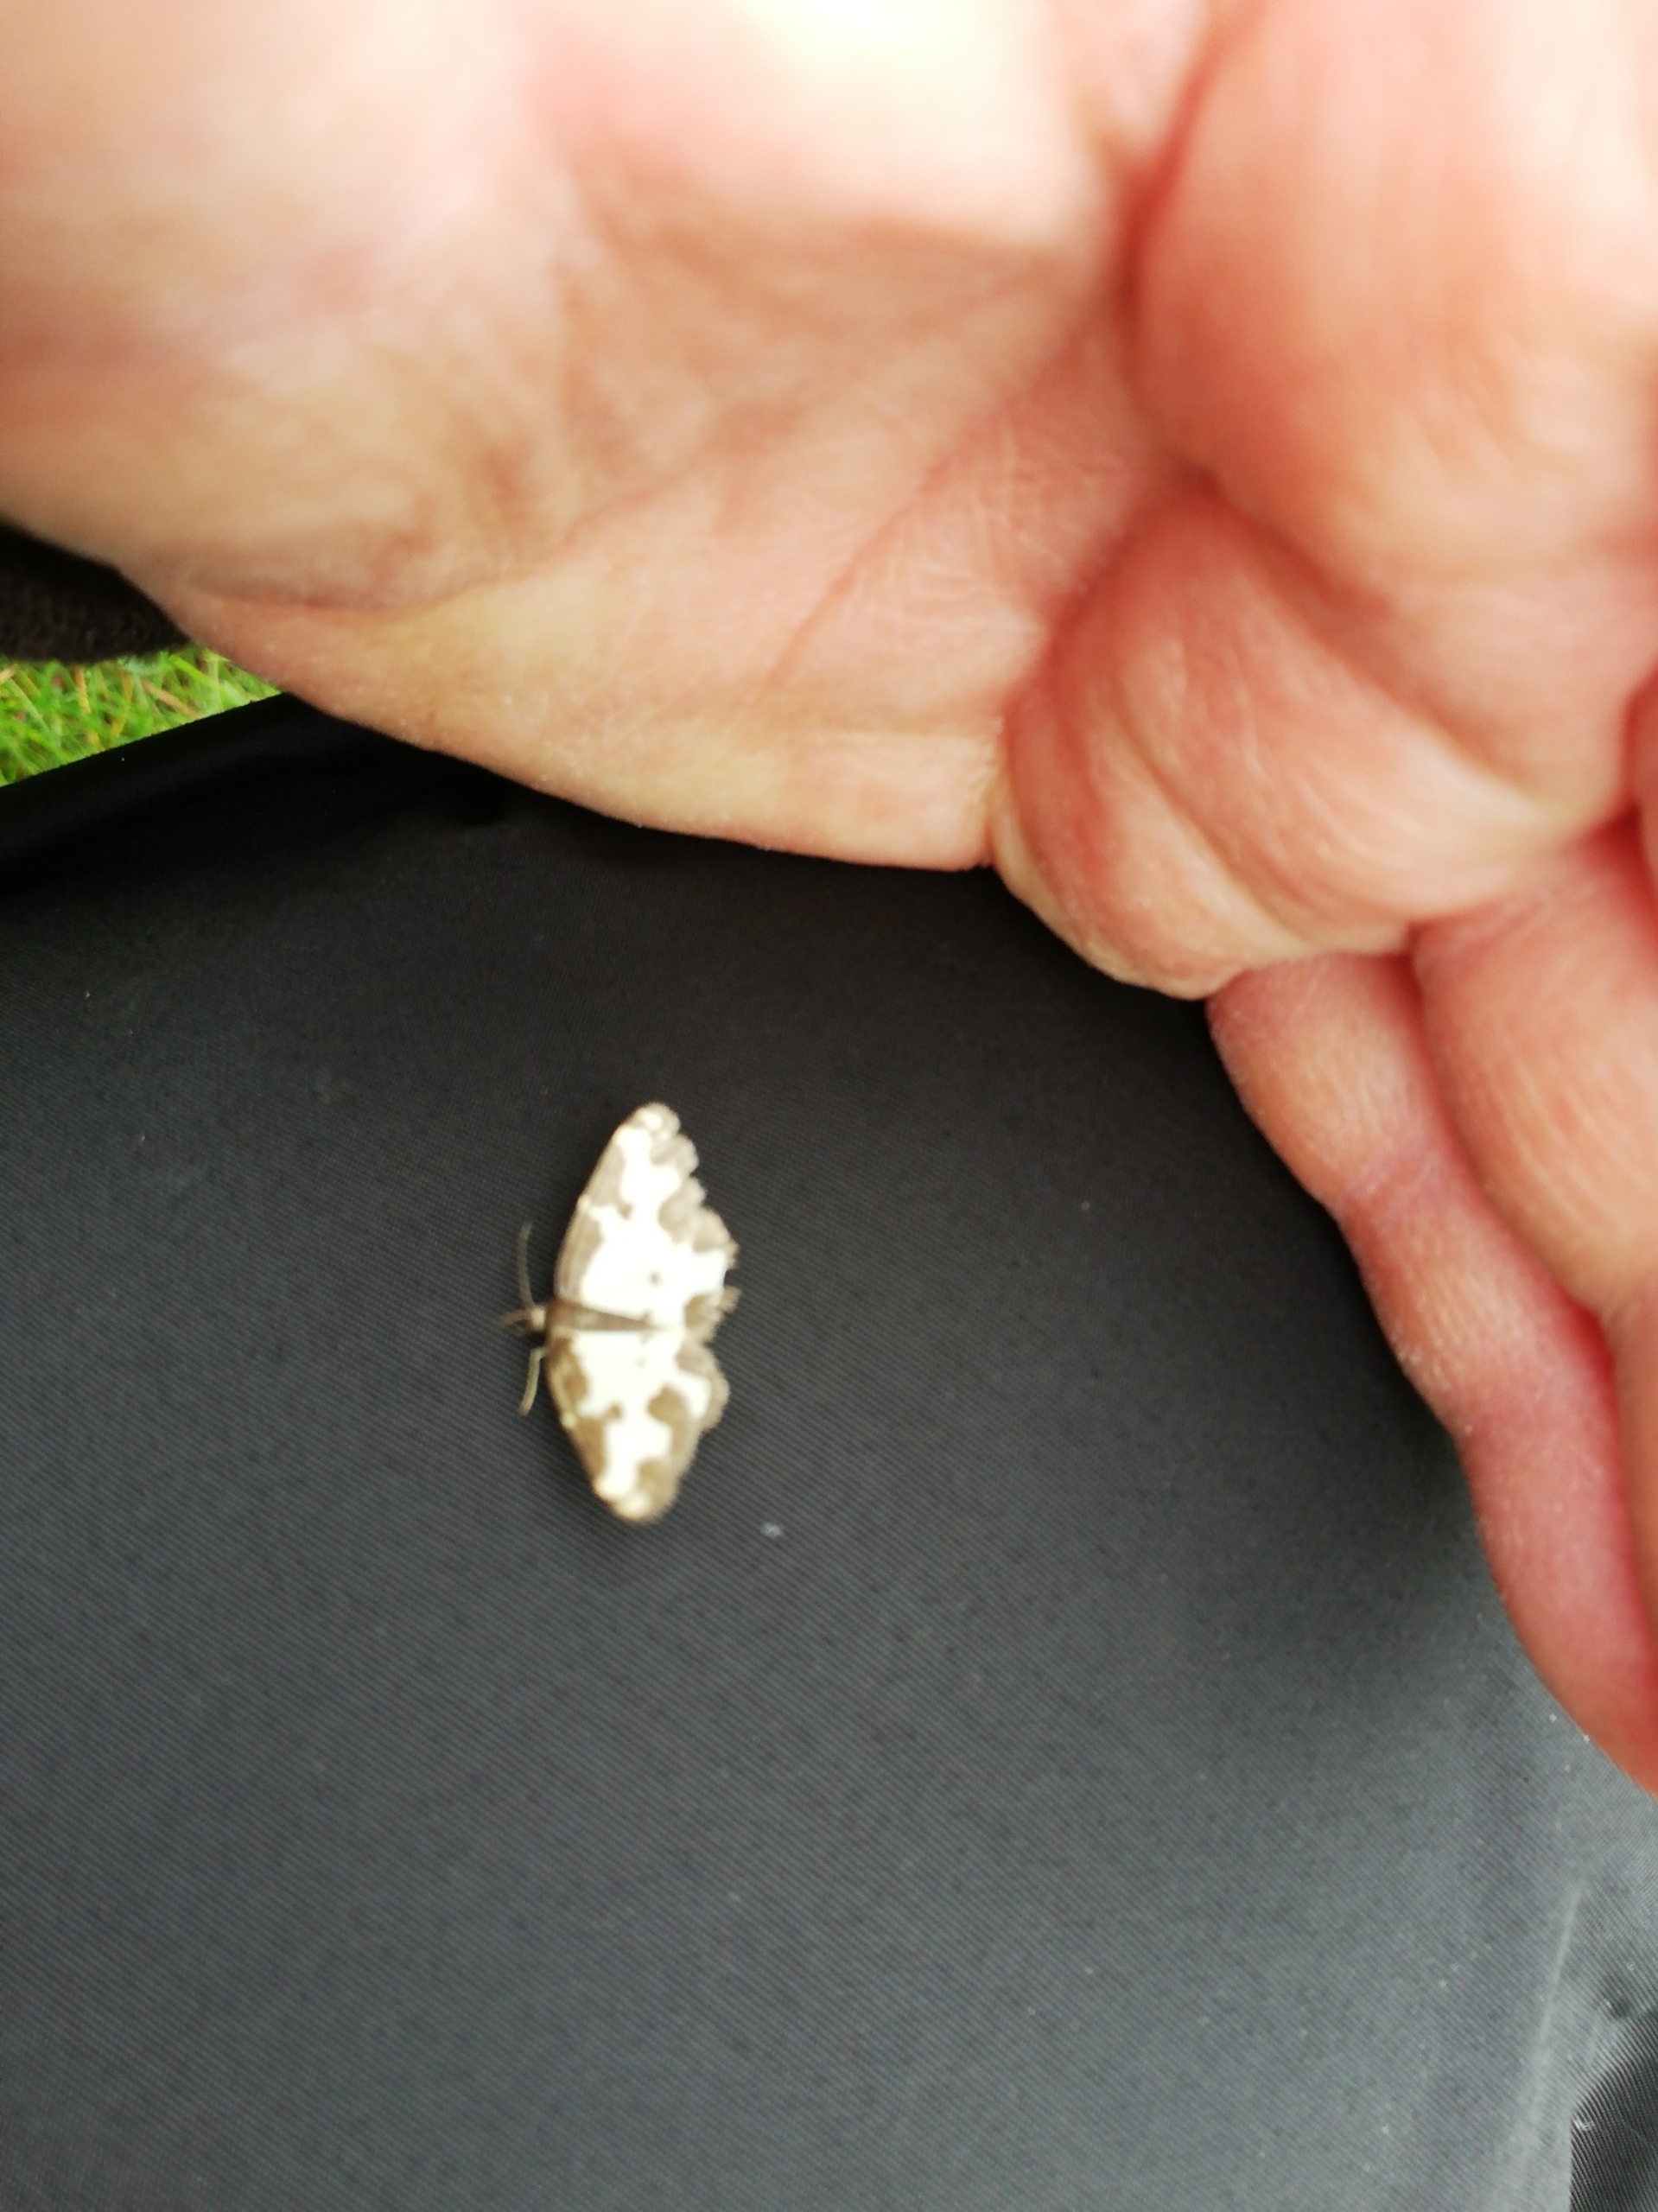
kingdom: Animalia
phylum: Arthropoda
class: Insecta
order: Lepidoptera
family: Geometridae
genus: Lomaspilis
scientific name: Lomaspilis marginata
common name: Sortrandet måler
